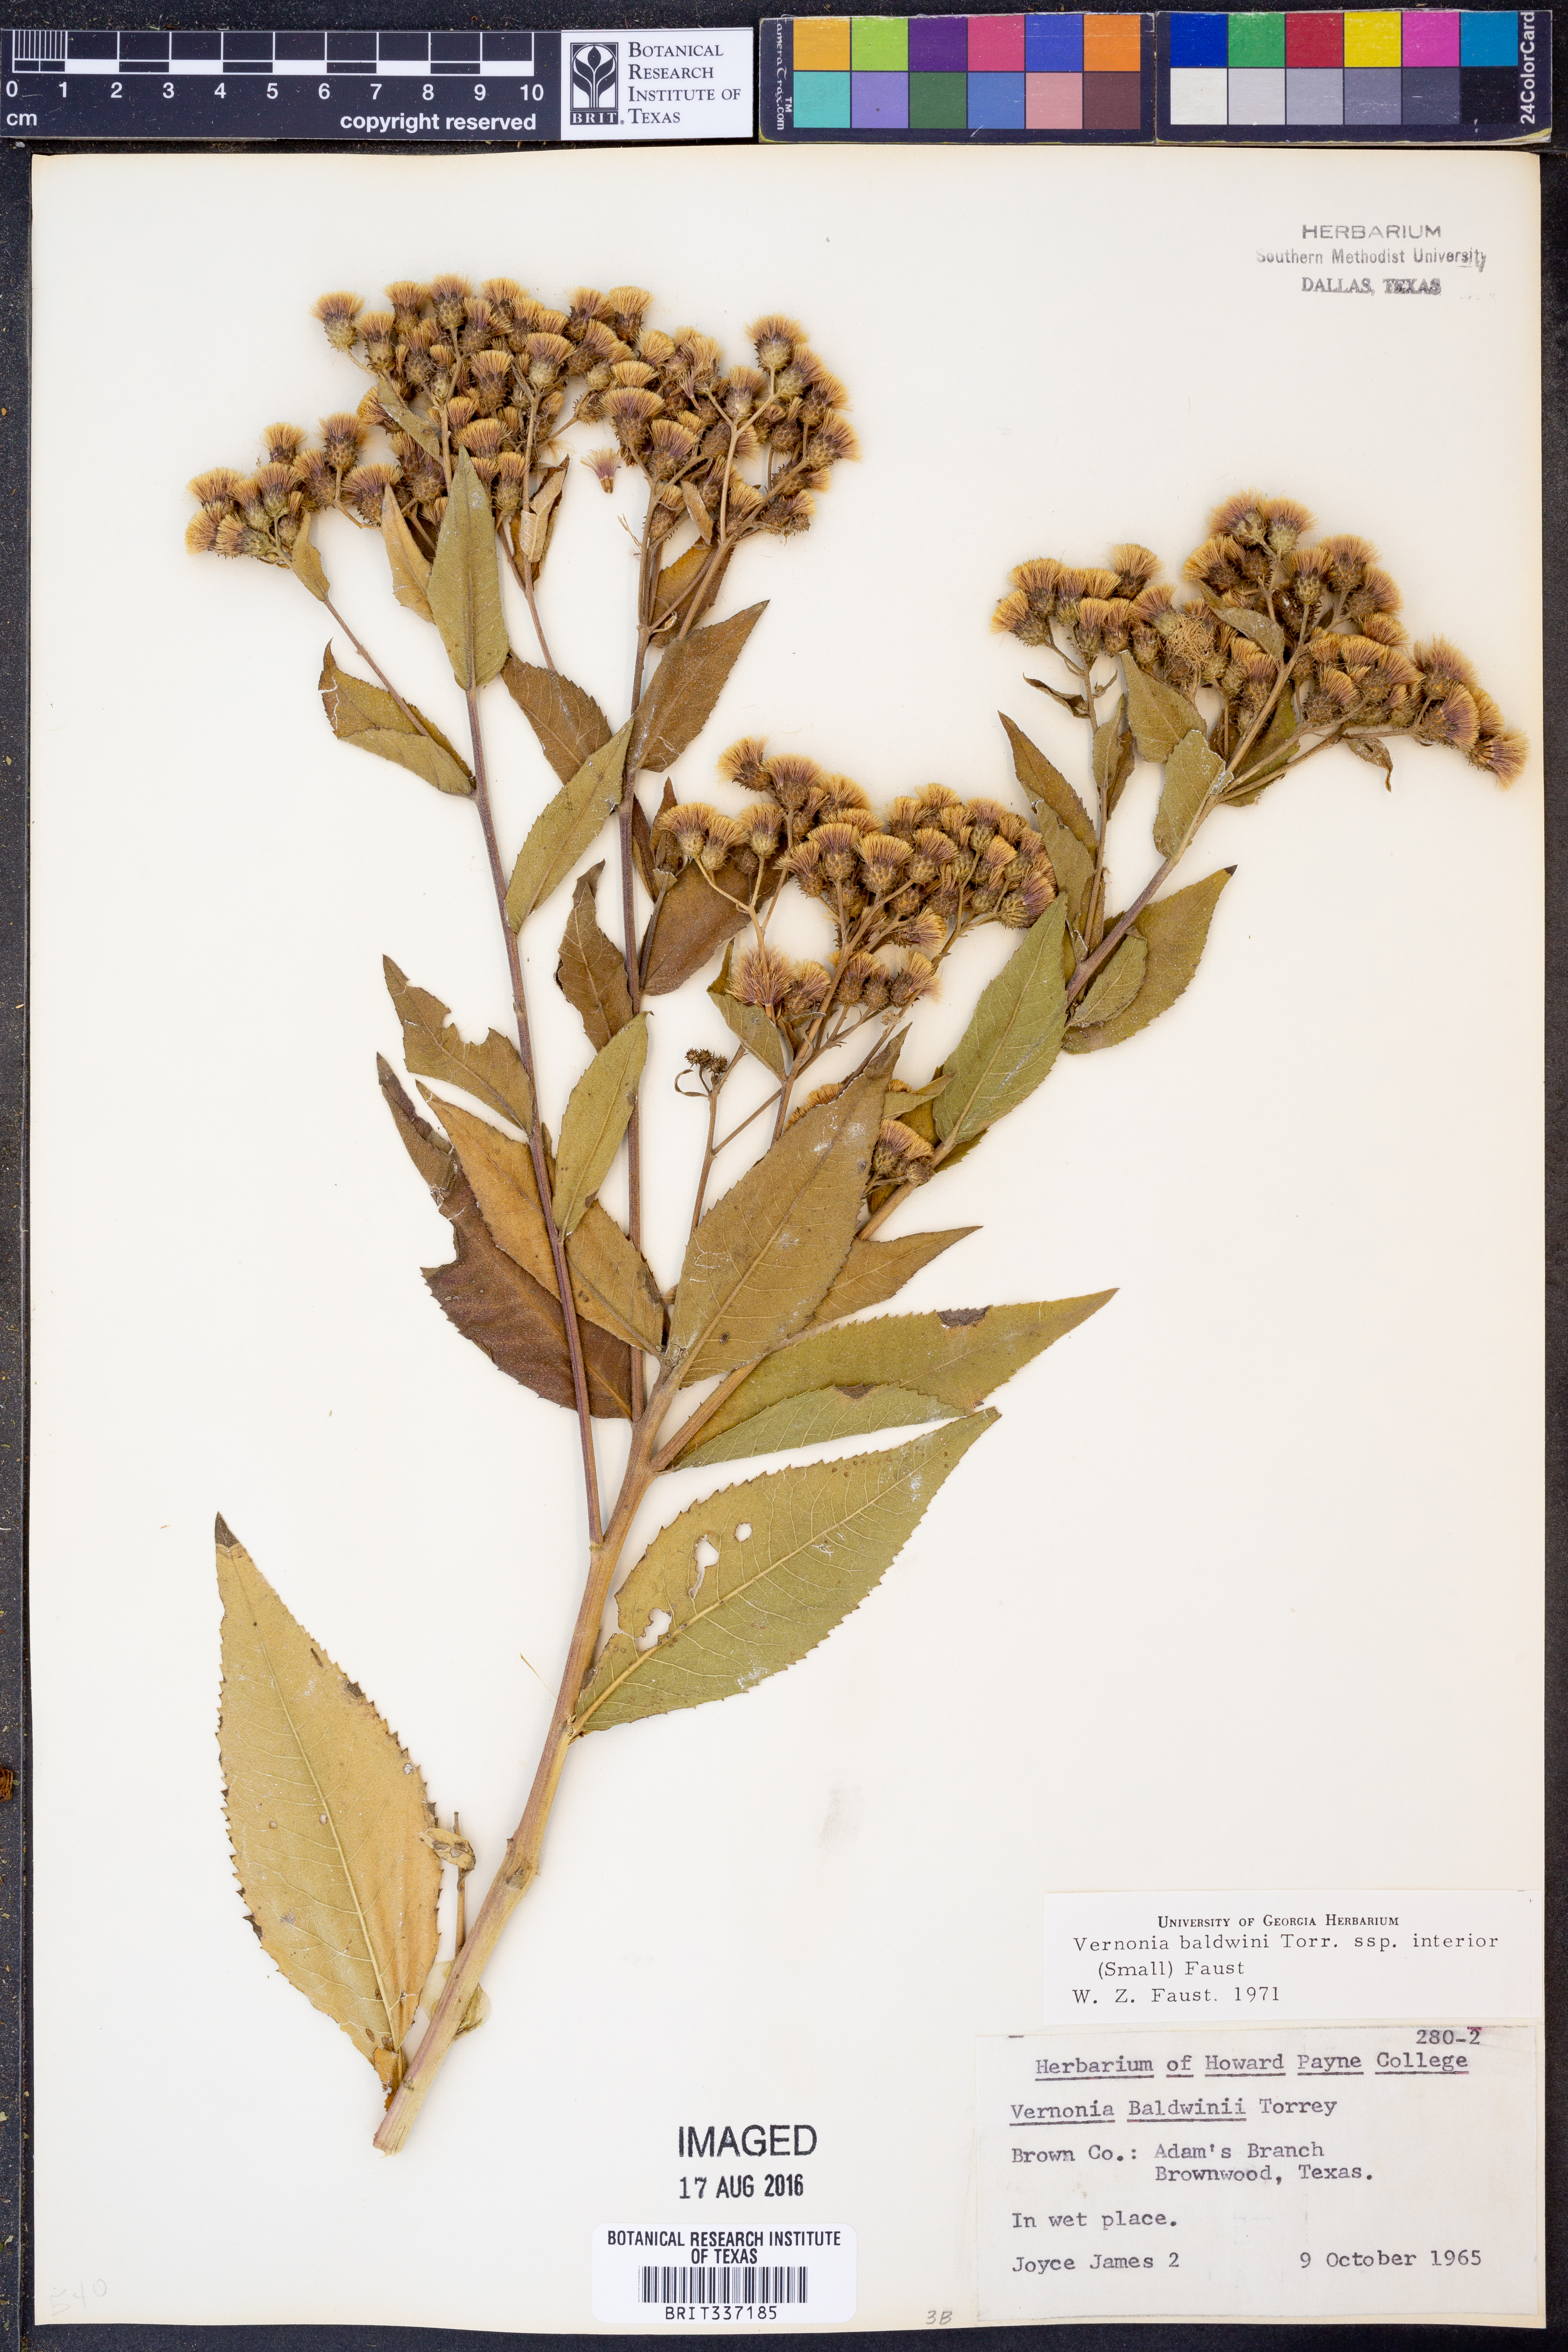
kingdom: Plantae
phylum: Tracheophyta
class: Magnoliopsida
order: Asterales
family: Asteraceae
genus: Vernonia
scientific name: Vernonia baldwinii
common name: Western ironweed
